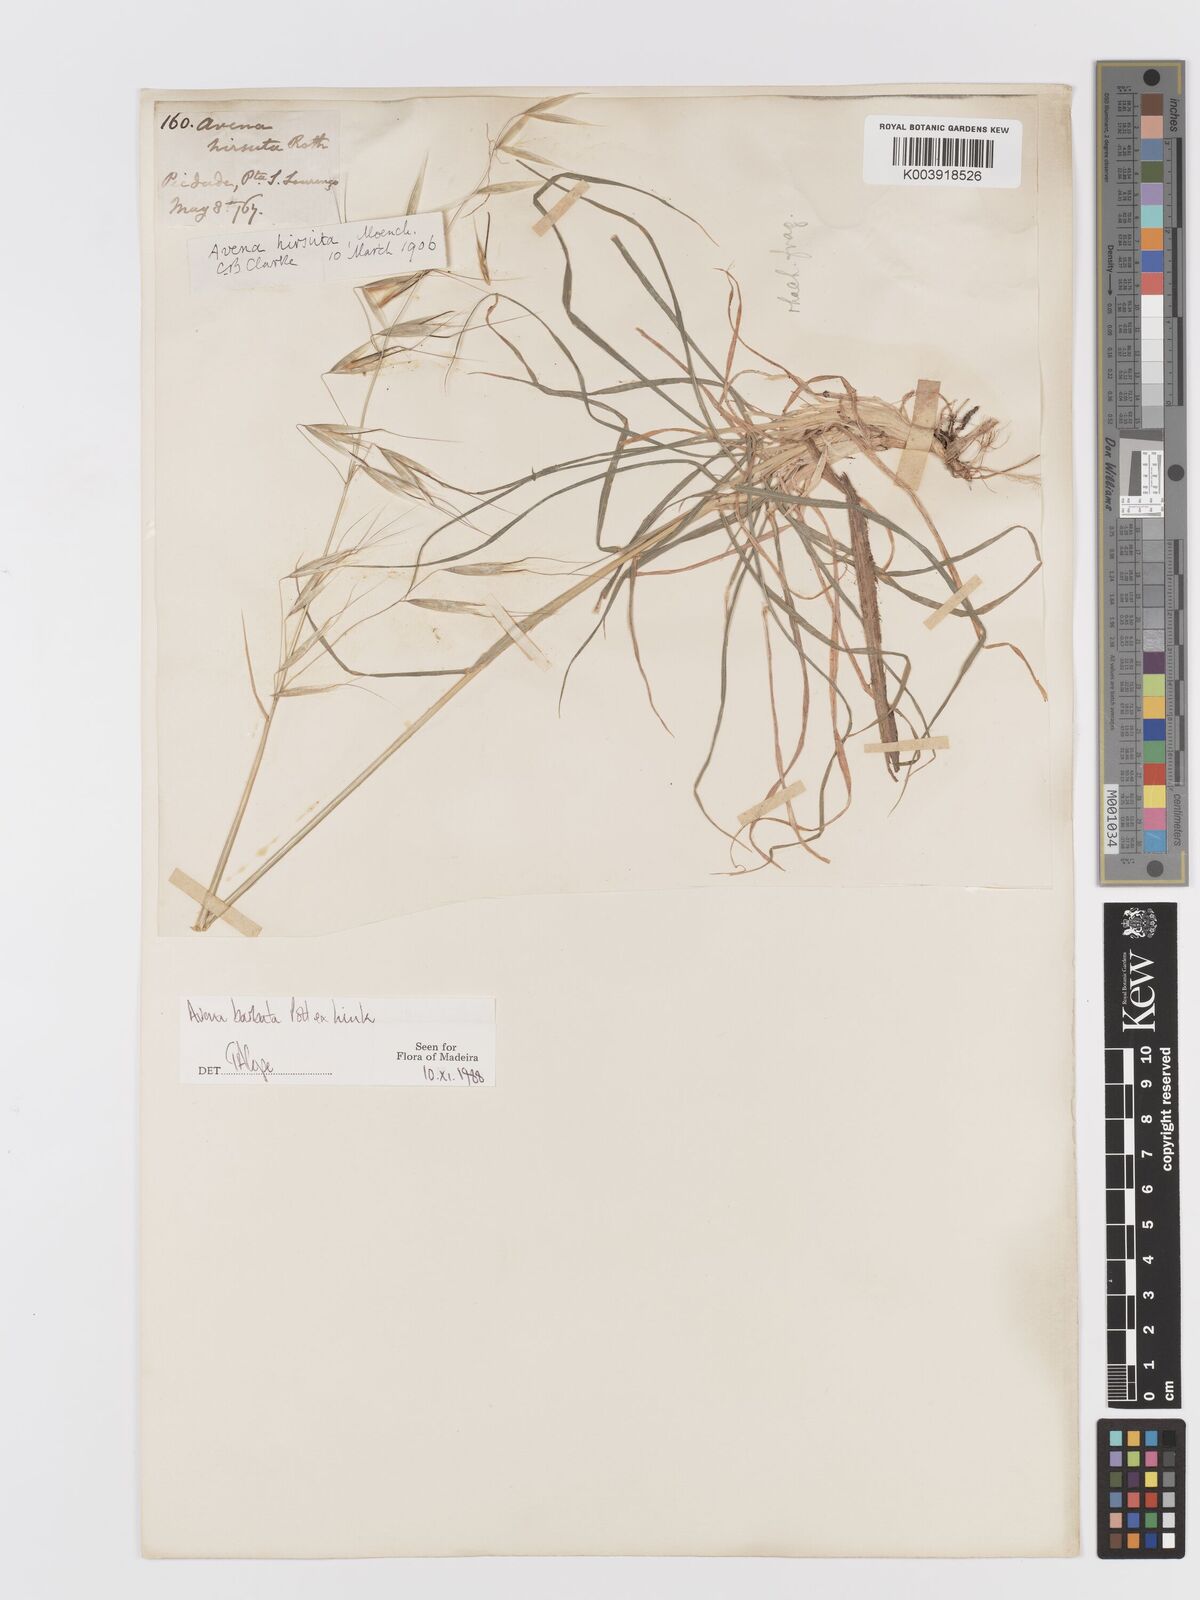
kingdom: Plantae
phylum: Tracheophyta
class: Liliopsida
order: Poales
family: Poaceae
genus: Avena
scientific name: Avena
